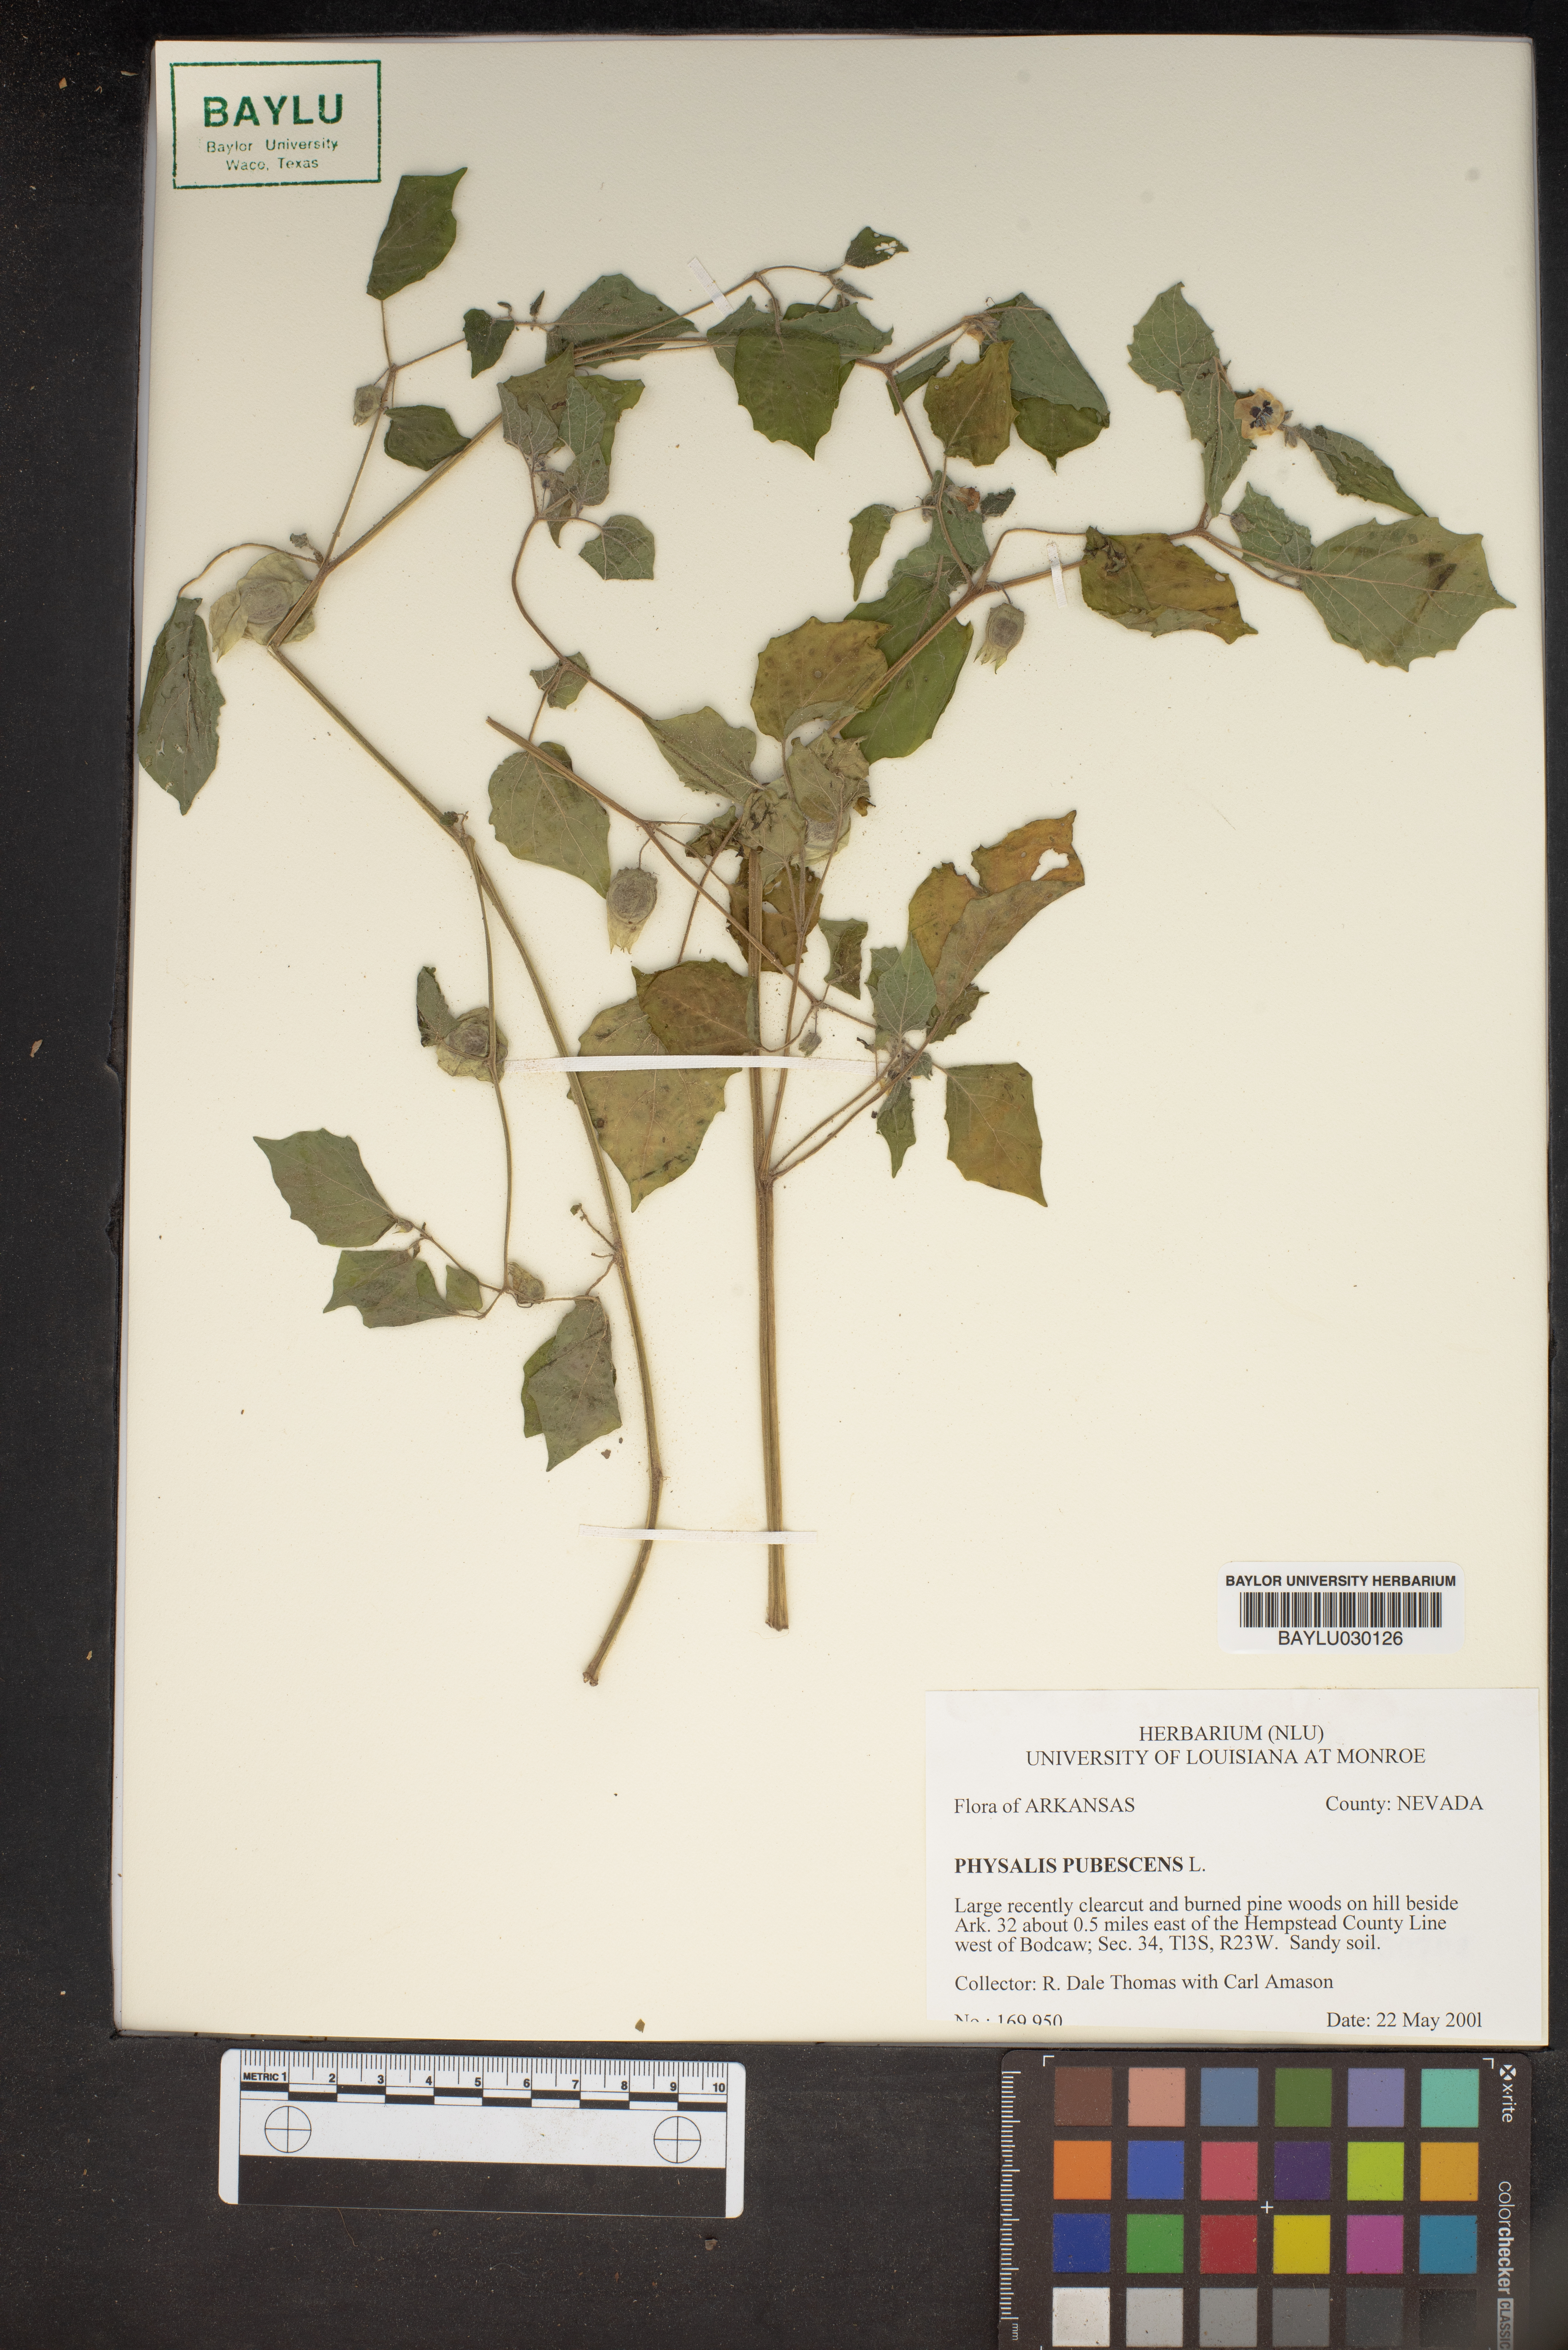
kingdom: Plantae
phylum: Tracheophyta
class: Magnoliopsida
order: Solanales
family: Solanaceae
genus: Physalis
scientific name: Physalis pubescens
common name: Downy ground-cherry
